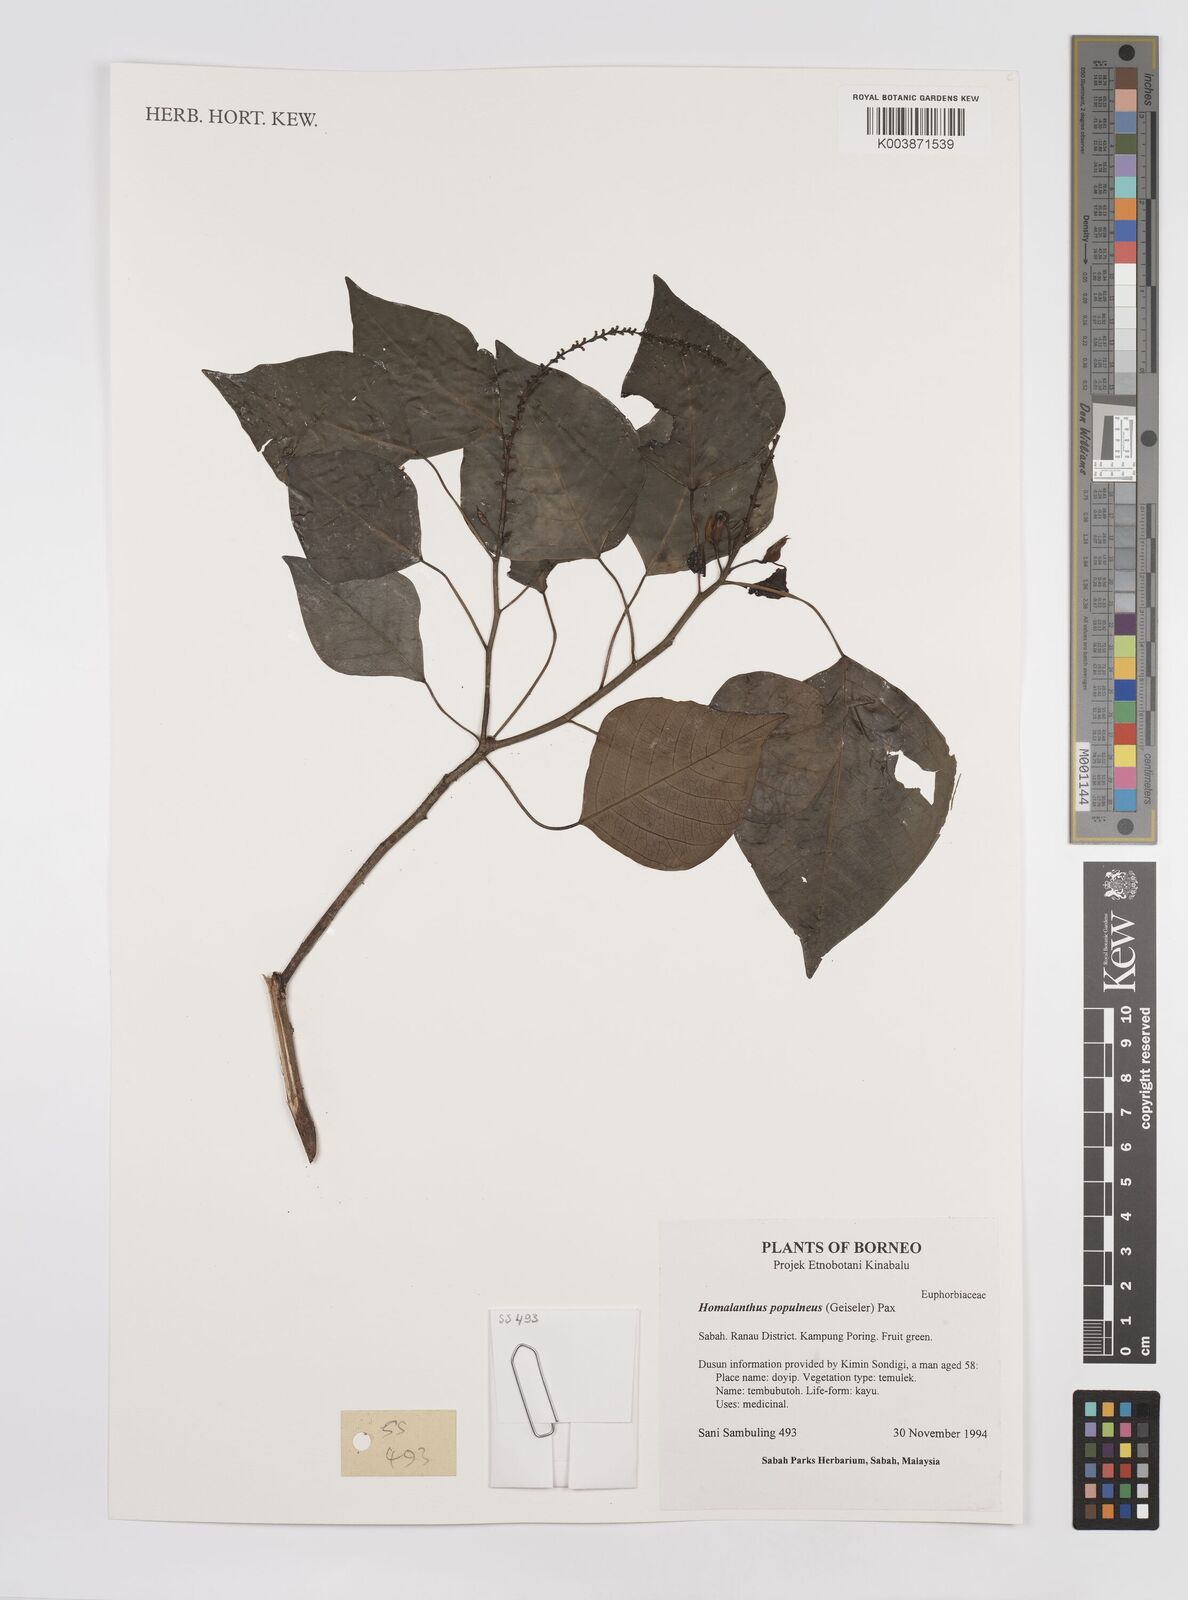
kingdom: Plantae
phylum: Tracheophyta
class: Magnoliopsida
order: Malpighiales
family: Euphorbiaceae
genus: Homalanthus
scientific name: Homalanthus populneus
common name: Spurge
